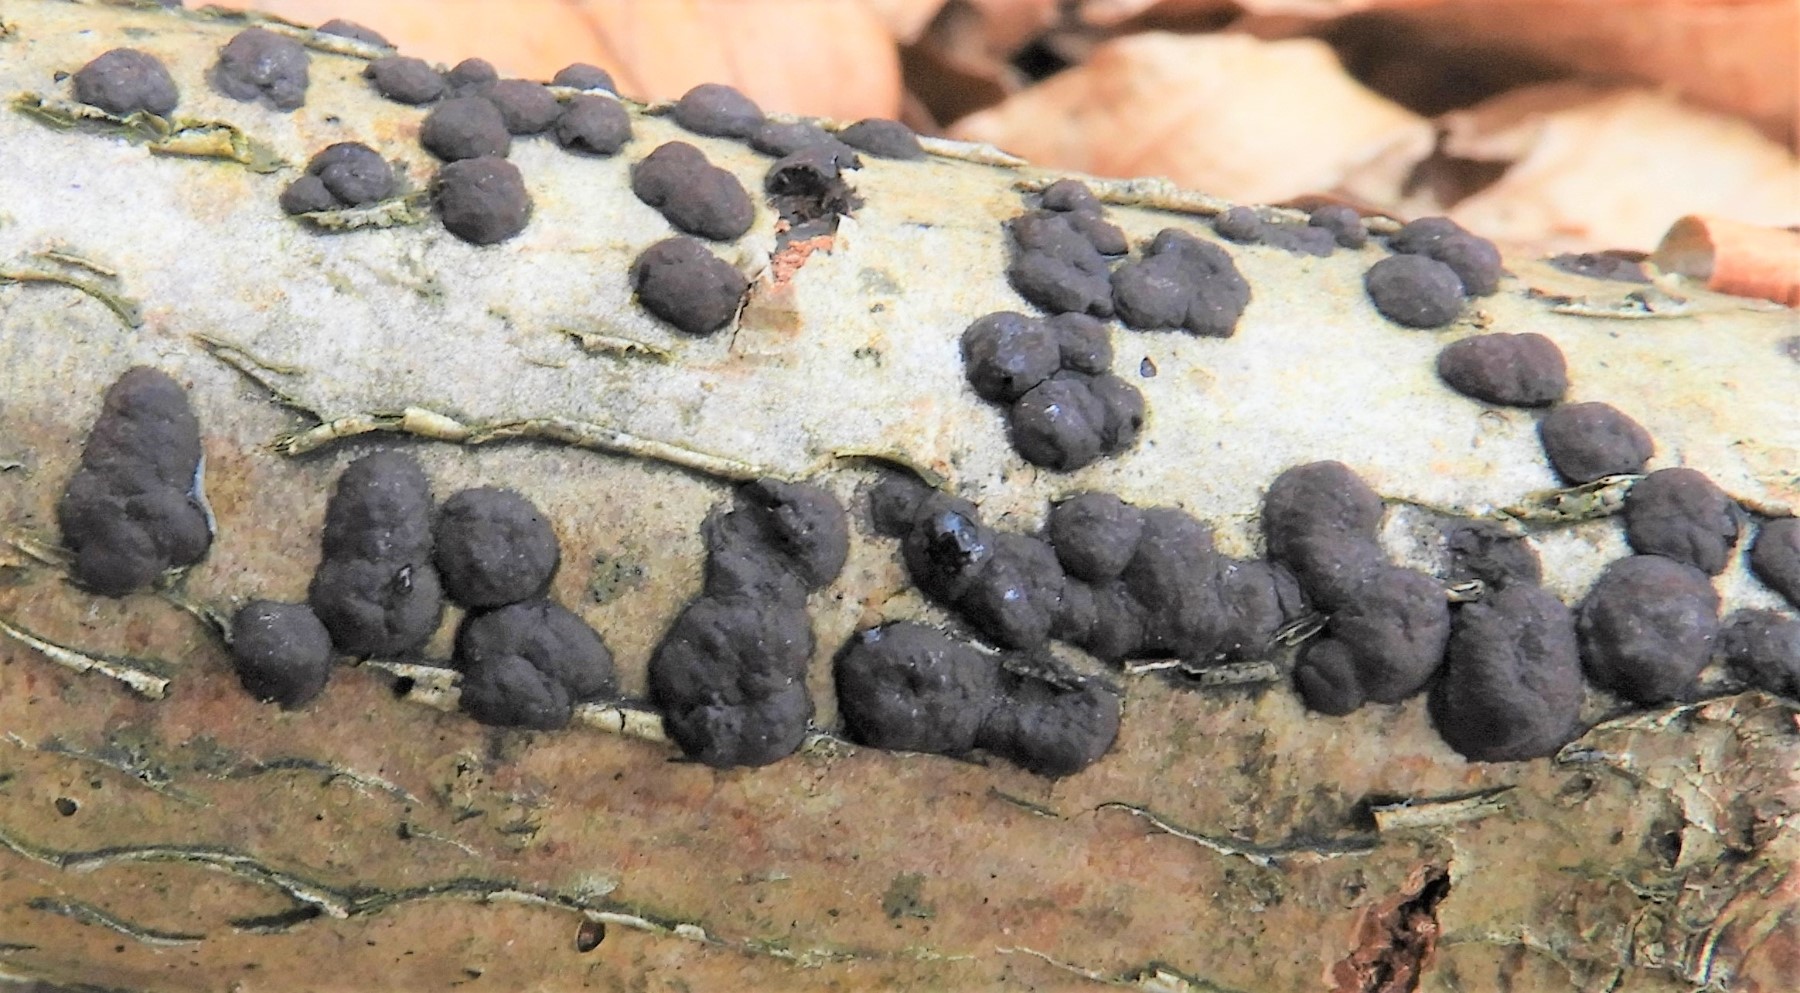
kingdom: Fungi
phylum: Ascomycota
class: Sordariomycetes
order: Xylariales
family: Hypoxylaceae
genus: Hypoxylon
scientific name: Hypoxylon fuscum
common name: kegleformet kulbær
